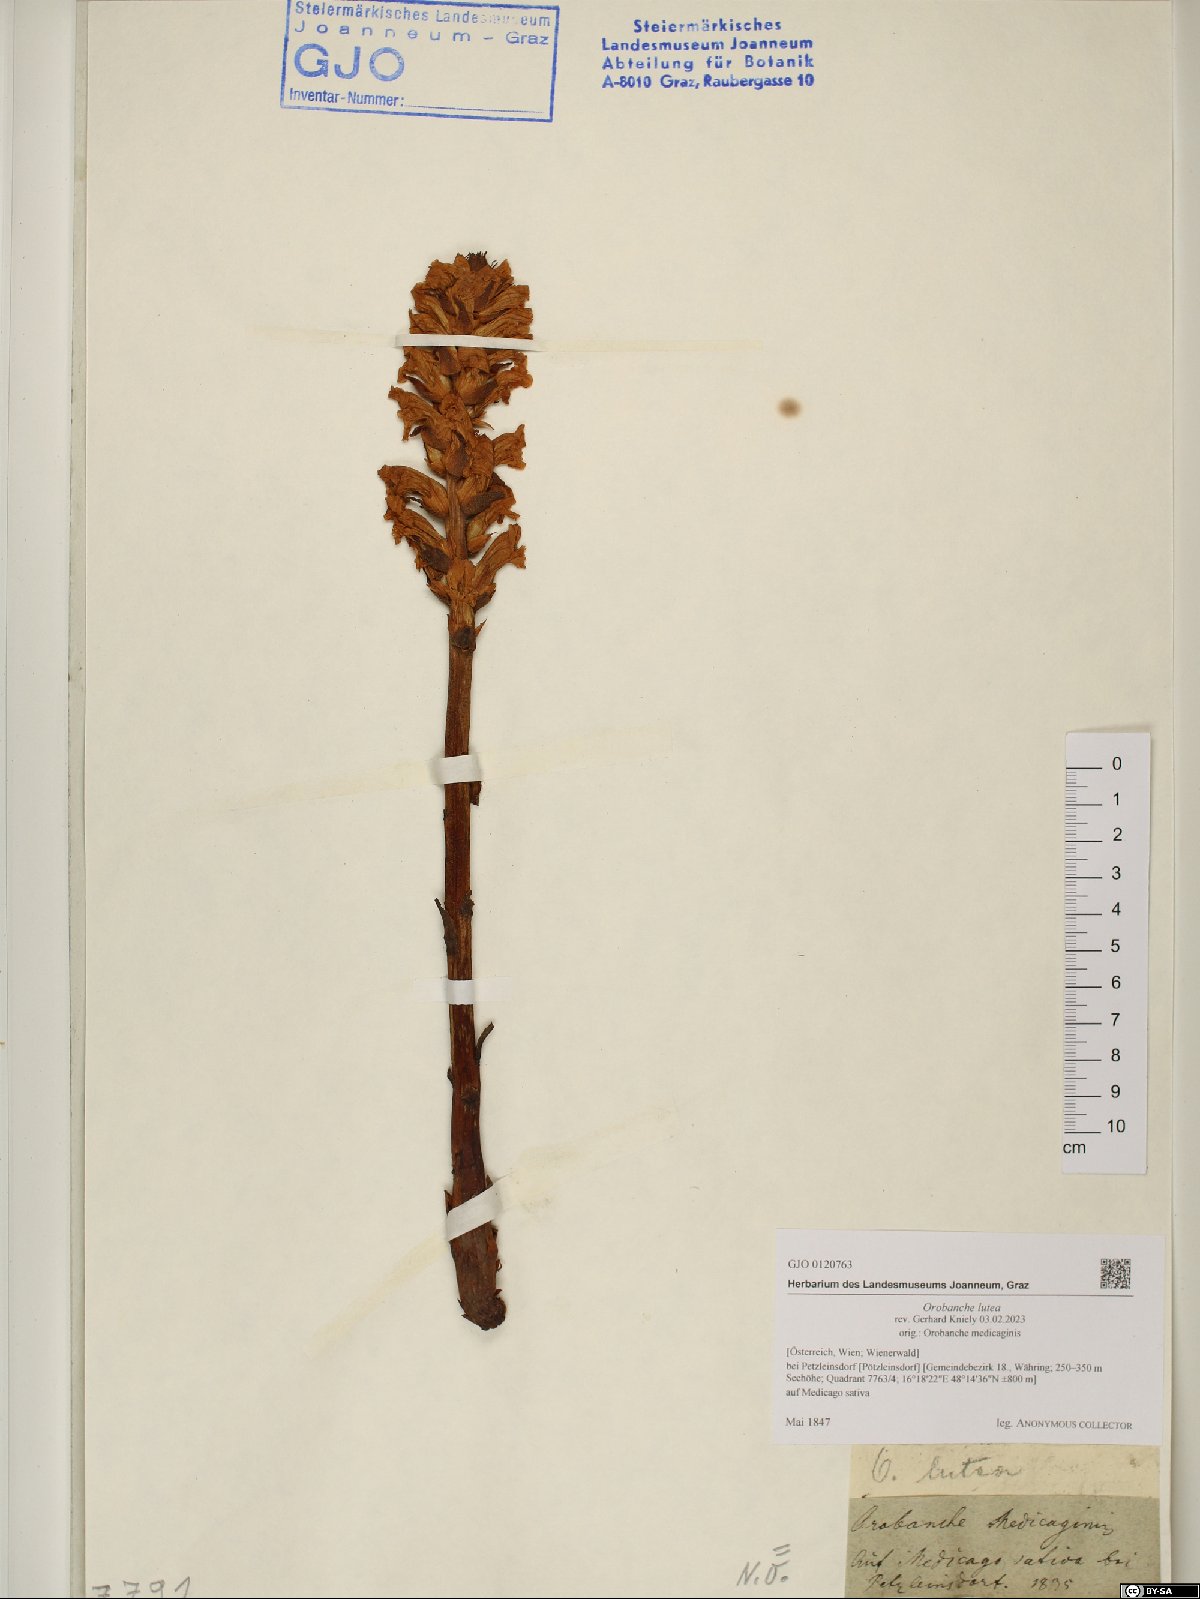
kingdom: Plantae
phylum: Tracheophyta
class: Magnoliopsida
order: Lamiales
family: Orobanchaceae
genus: Orobanche
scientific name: Orobanche lutea
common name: Yellow broomrape
